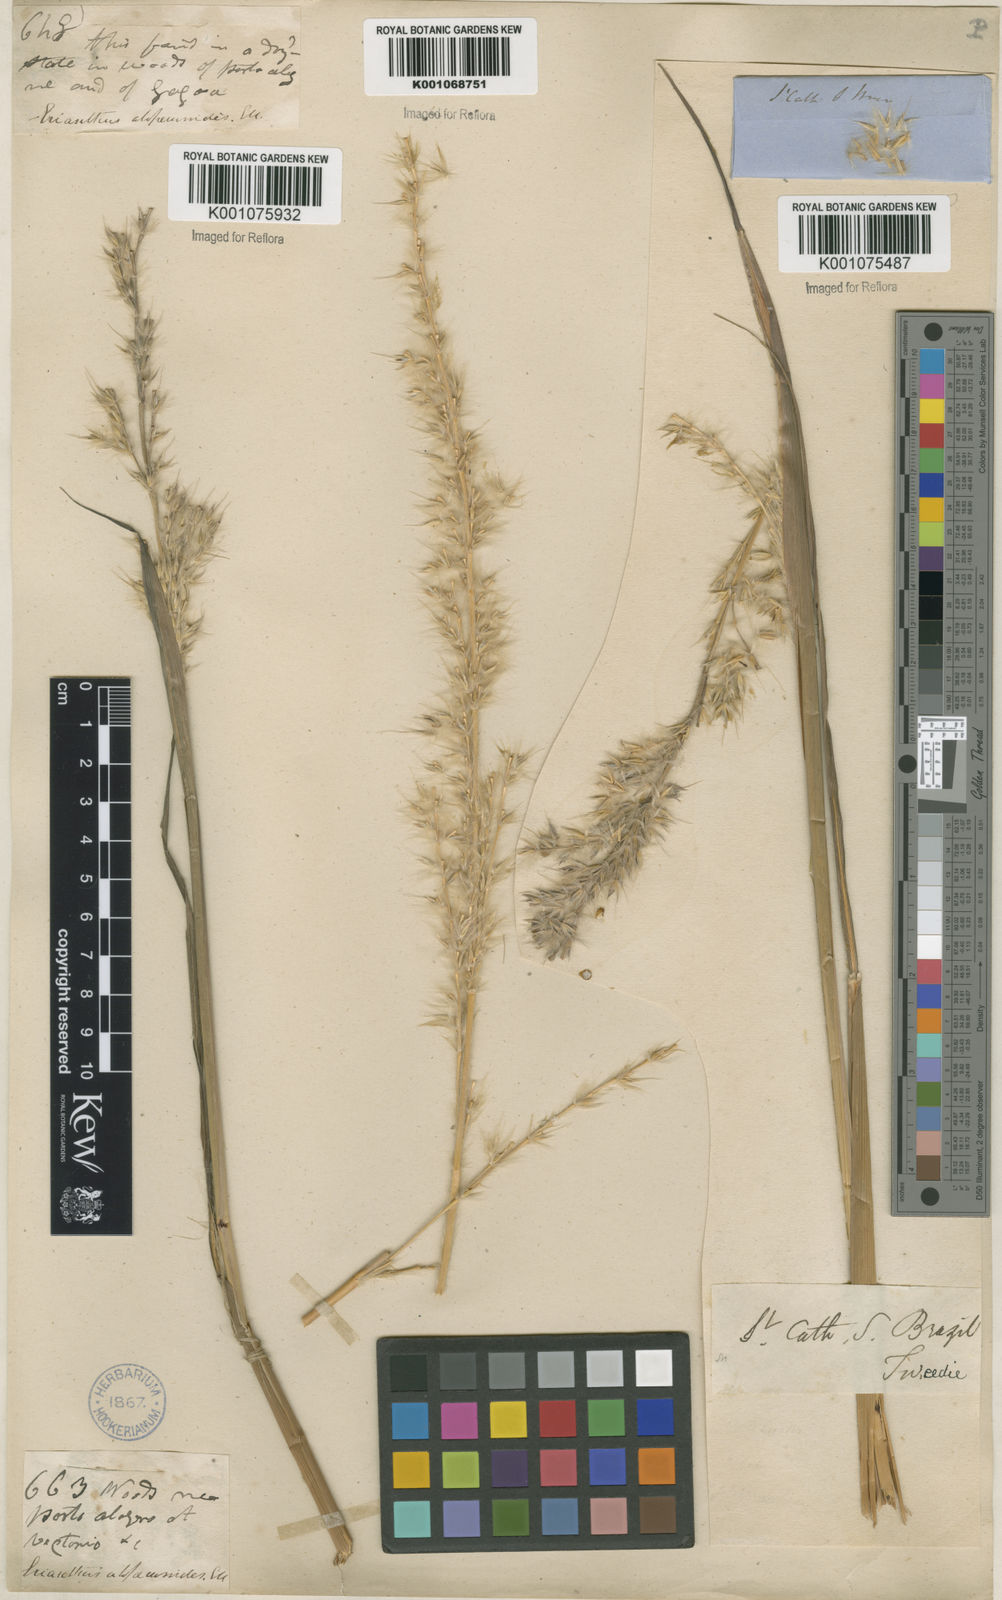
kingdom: Plantae
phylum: Tracheophyta
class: Liliopsida
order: Poales
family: Poaceae
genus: Erianthus
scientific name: Erianthus trinii
